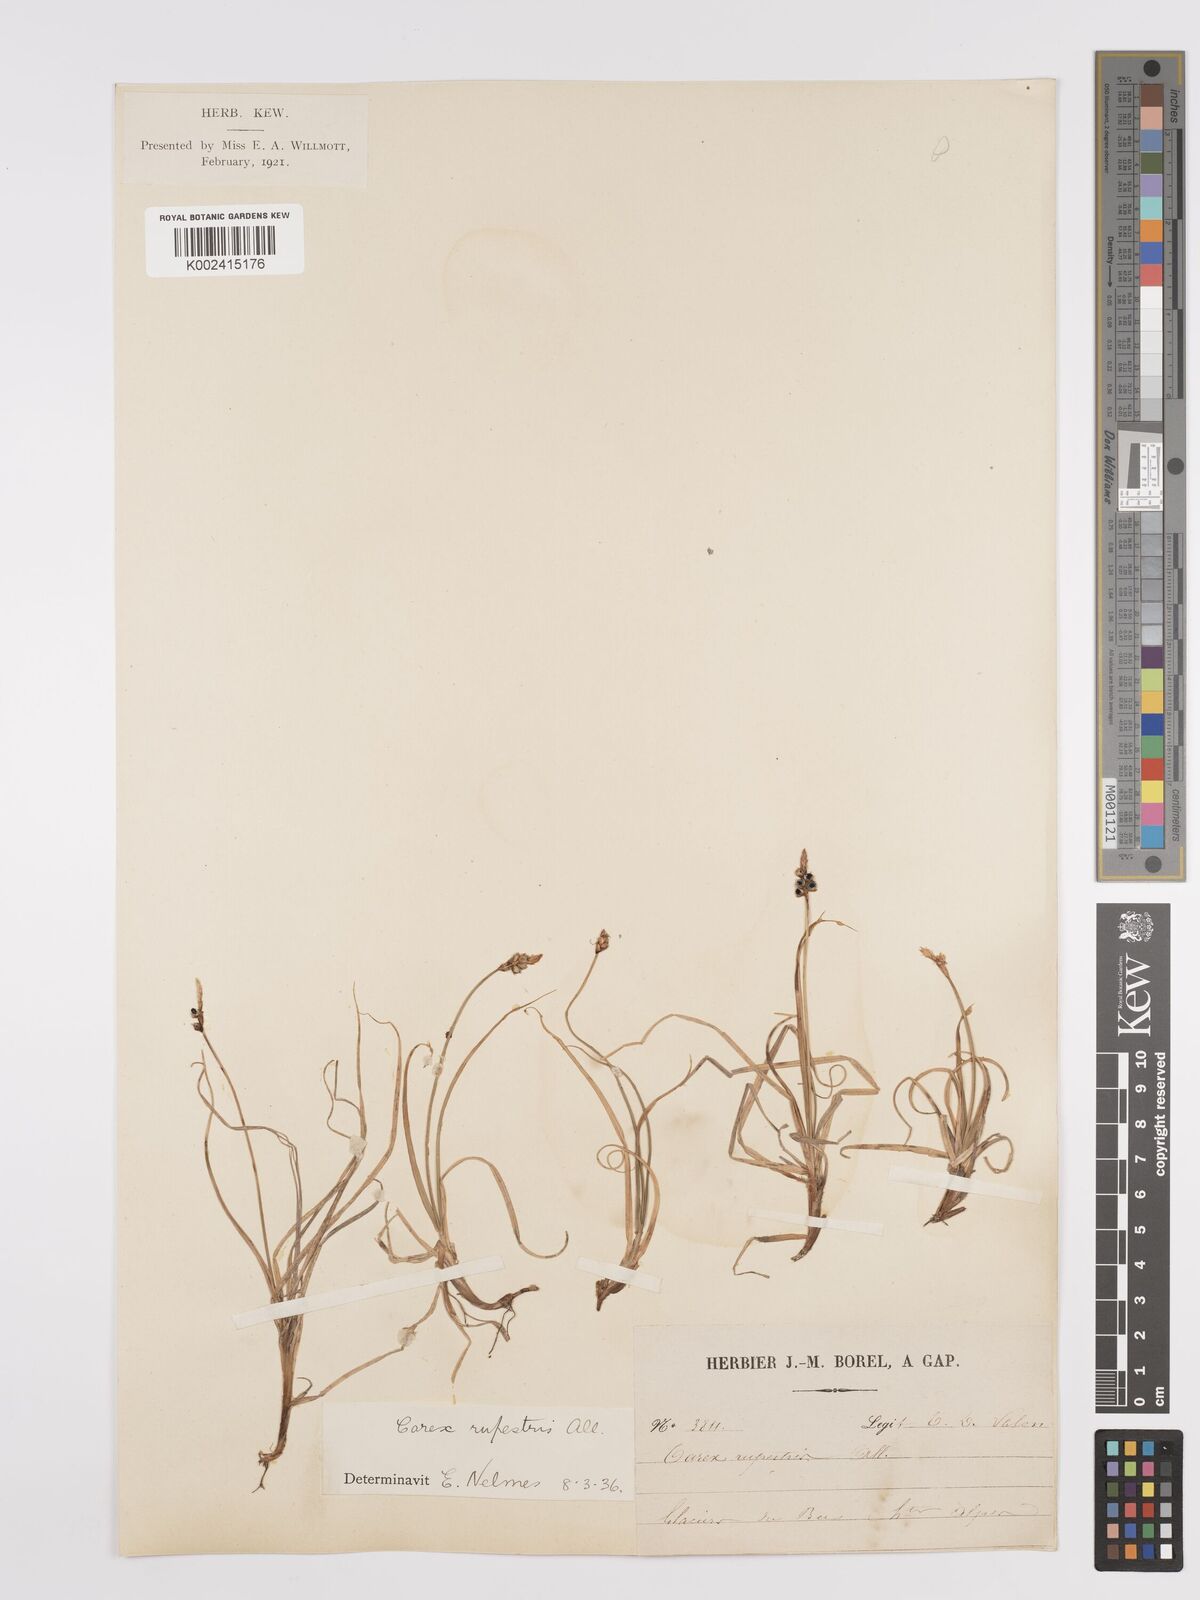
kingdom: Plantae
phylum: Tracheophyta
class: Liliopsida
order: Poales
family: Cyperaceae
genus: Carex
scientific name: Carex rupestris
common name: Rock sedge
